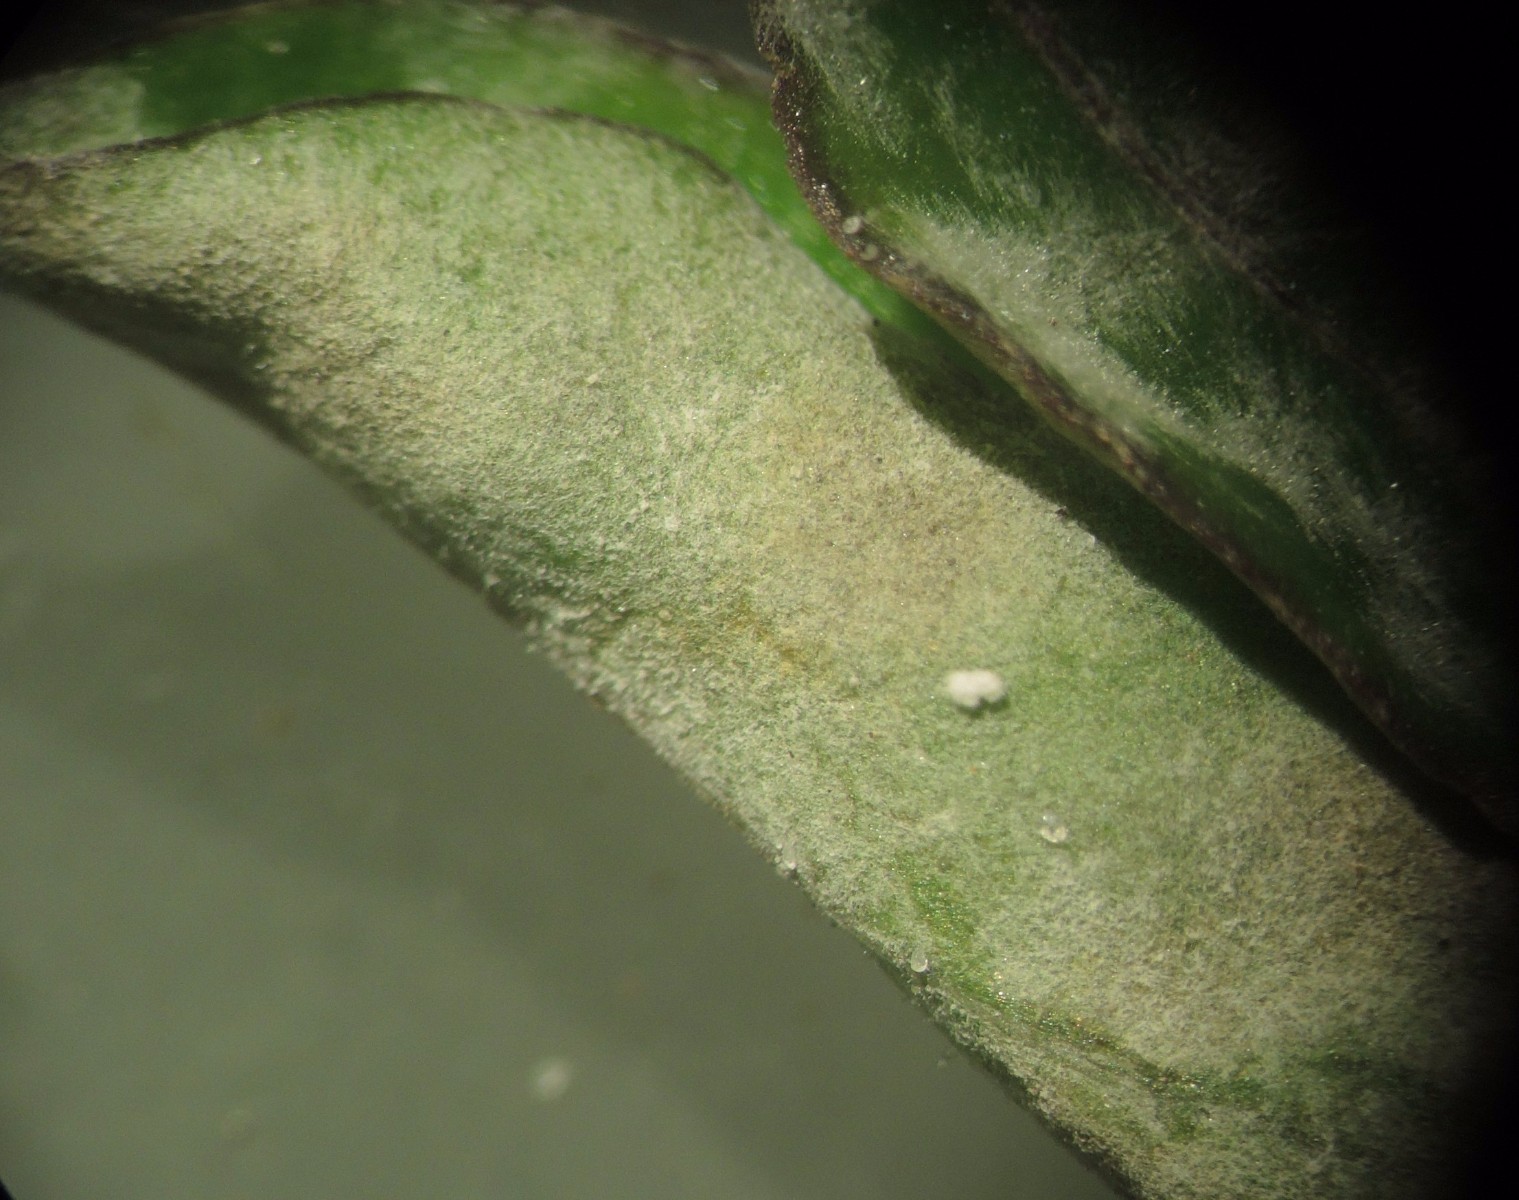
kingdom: Fungi
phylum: Ascomycota
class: Leotiomycetes
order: Helotiales
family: Erysiphaceae
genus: Erysiphe
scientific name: Erysiphe mougeotii
